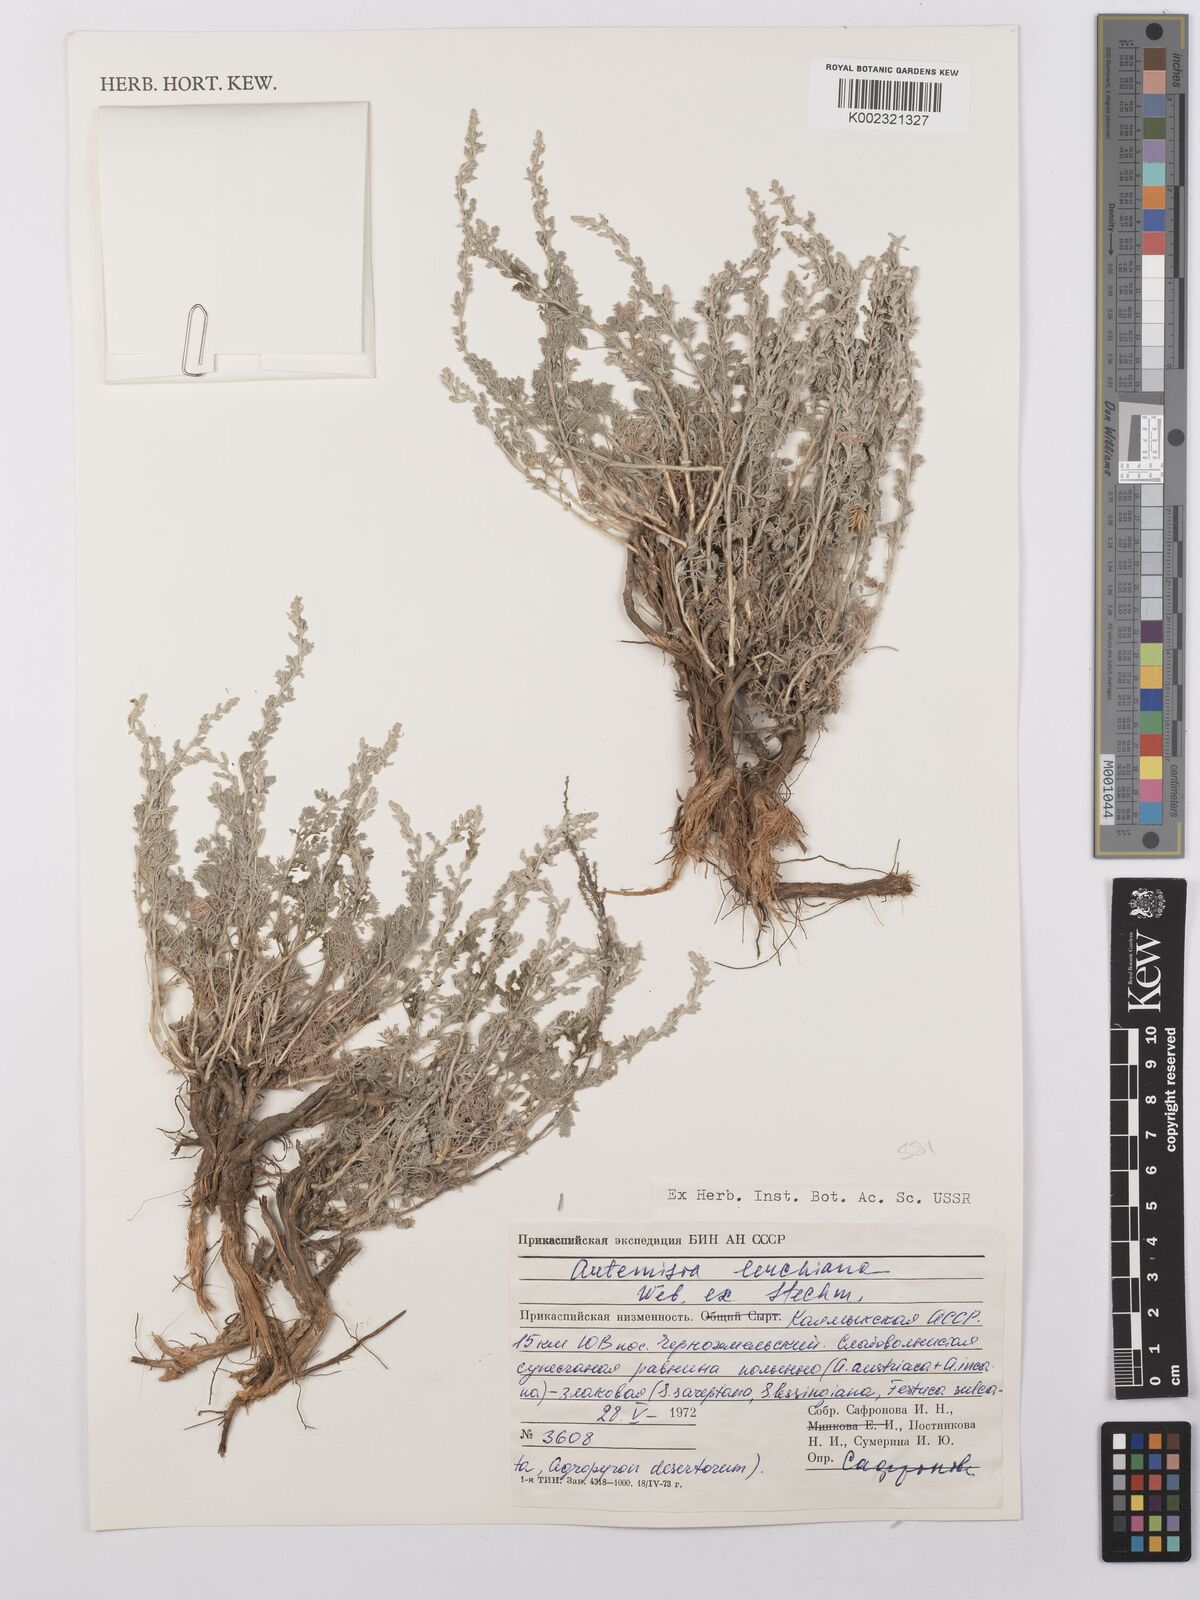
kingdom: Plantae
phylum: Tracheophyta
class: Magnoliopsida
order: Asterales
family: Asteraceae
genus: Artemisia
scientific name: Artemisia taurica
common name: Tauric wormwood
